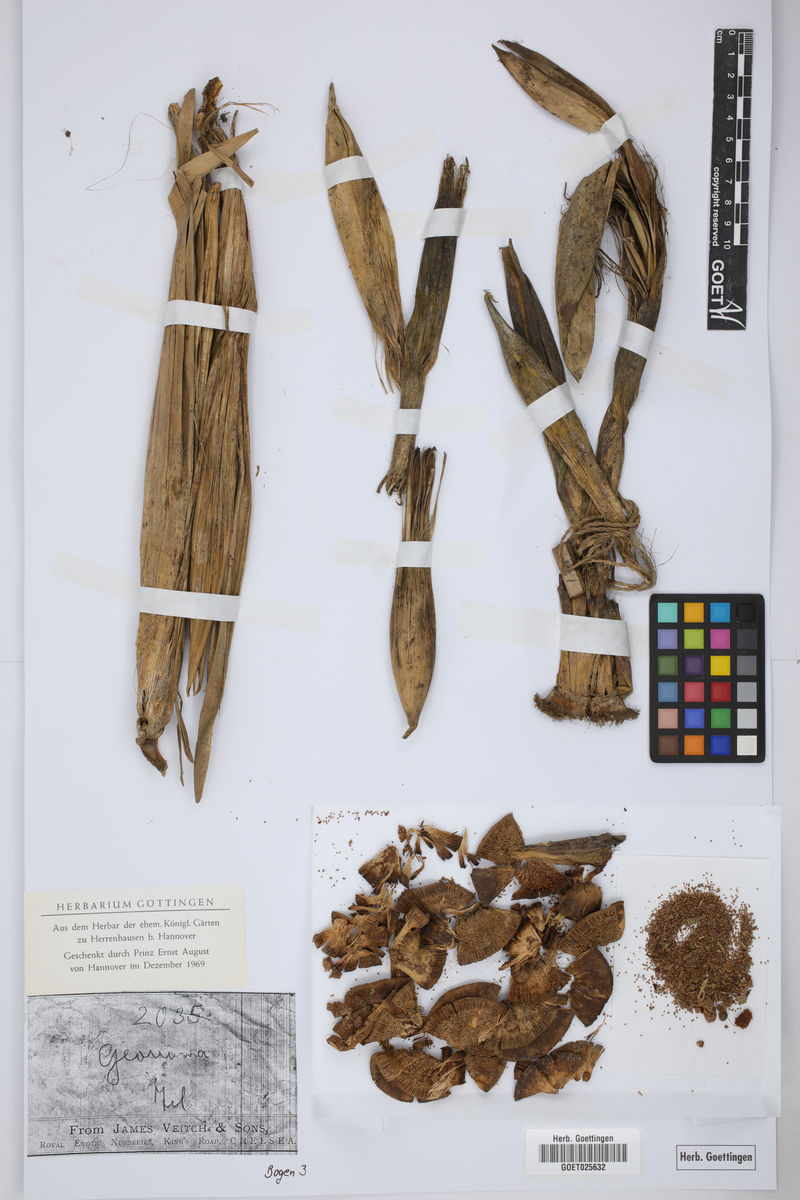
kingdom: Plantae
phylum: Tracheophyta
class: Liliopsida
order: Arecales
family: Arecaceae
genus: Geonoma
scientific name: Geonoma
